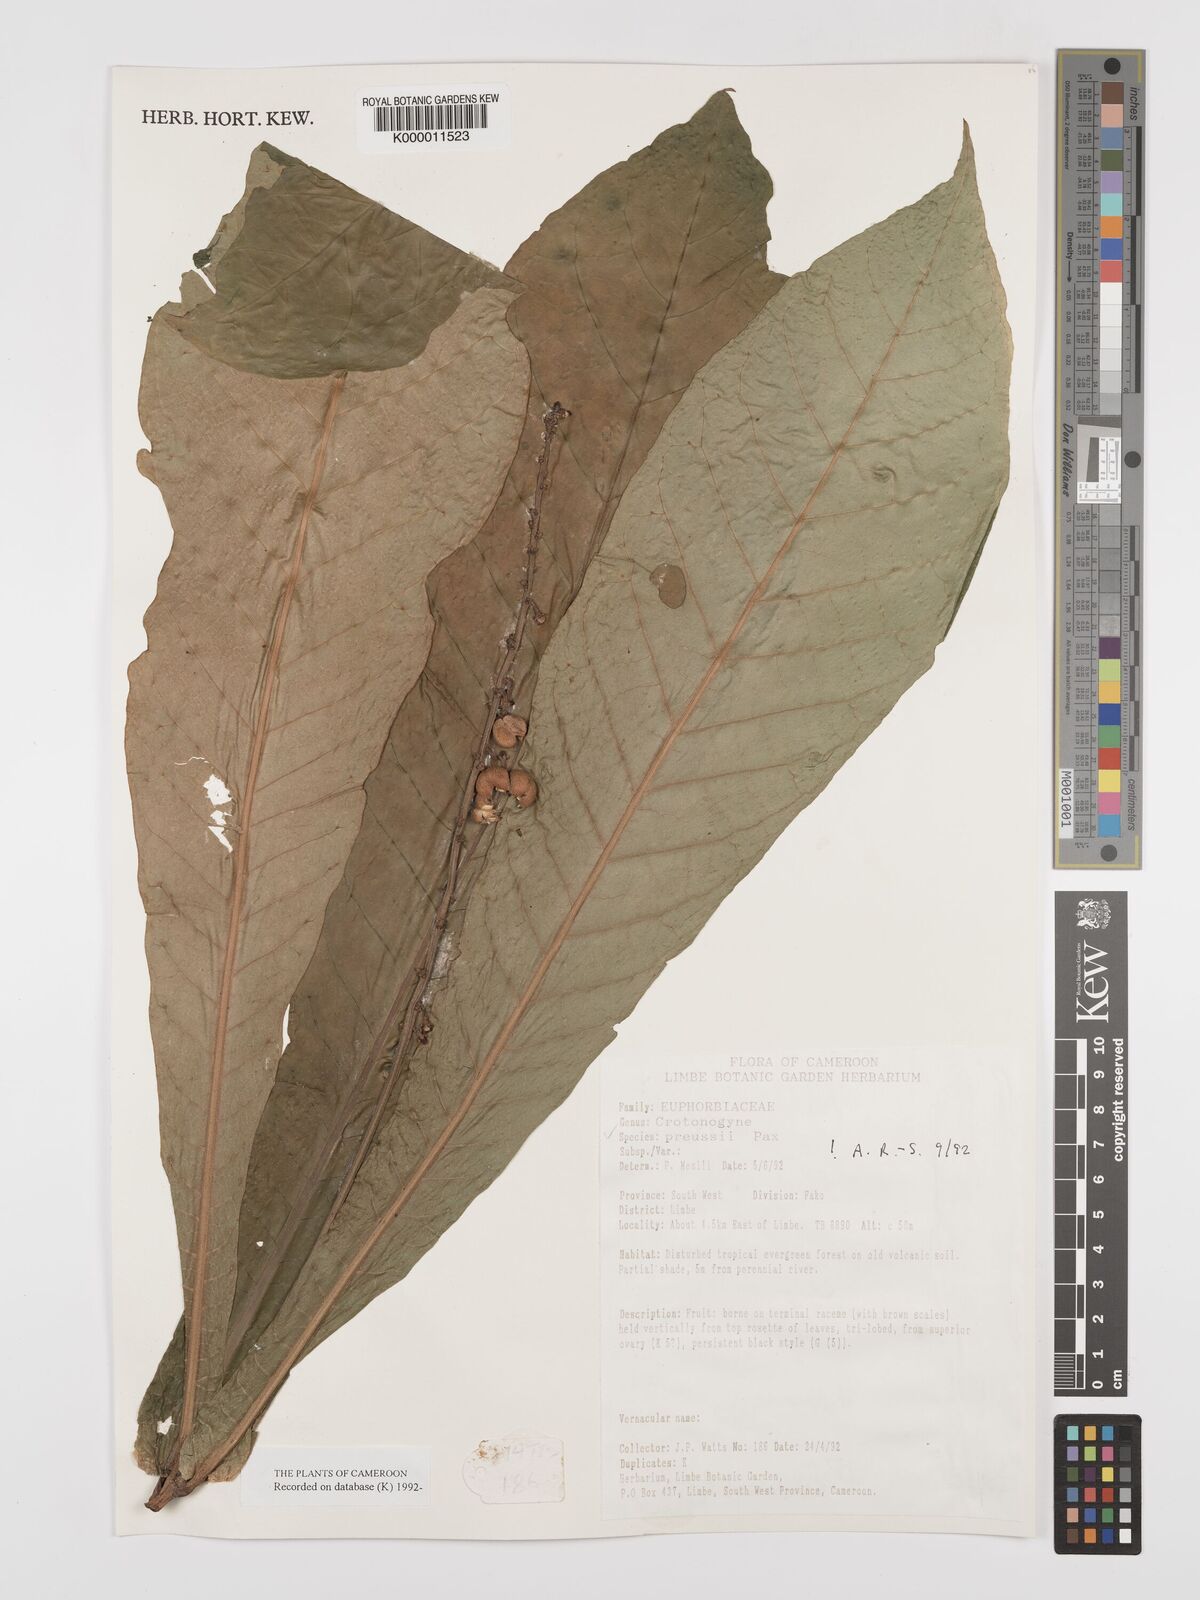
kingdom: Plantae
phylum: Tracheophyta
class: Magnoliopsida
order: Malpighiales
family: Euphorbiaceae
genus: Crotonogyne
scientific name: Crotonogyne preussii
